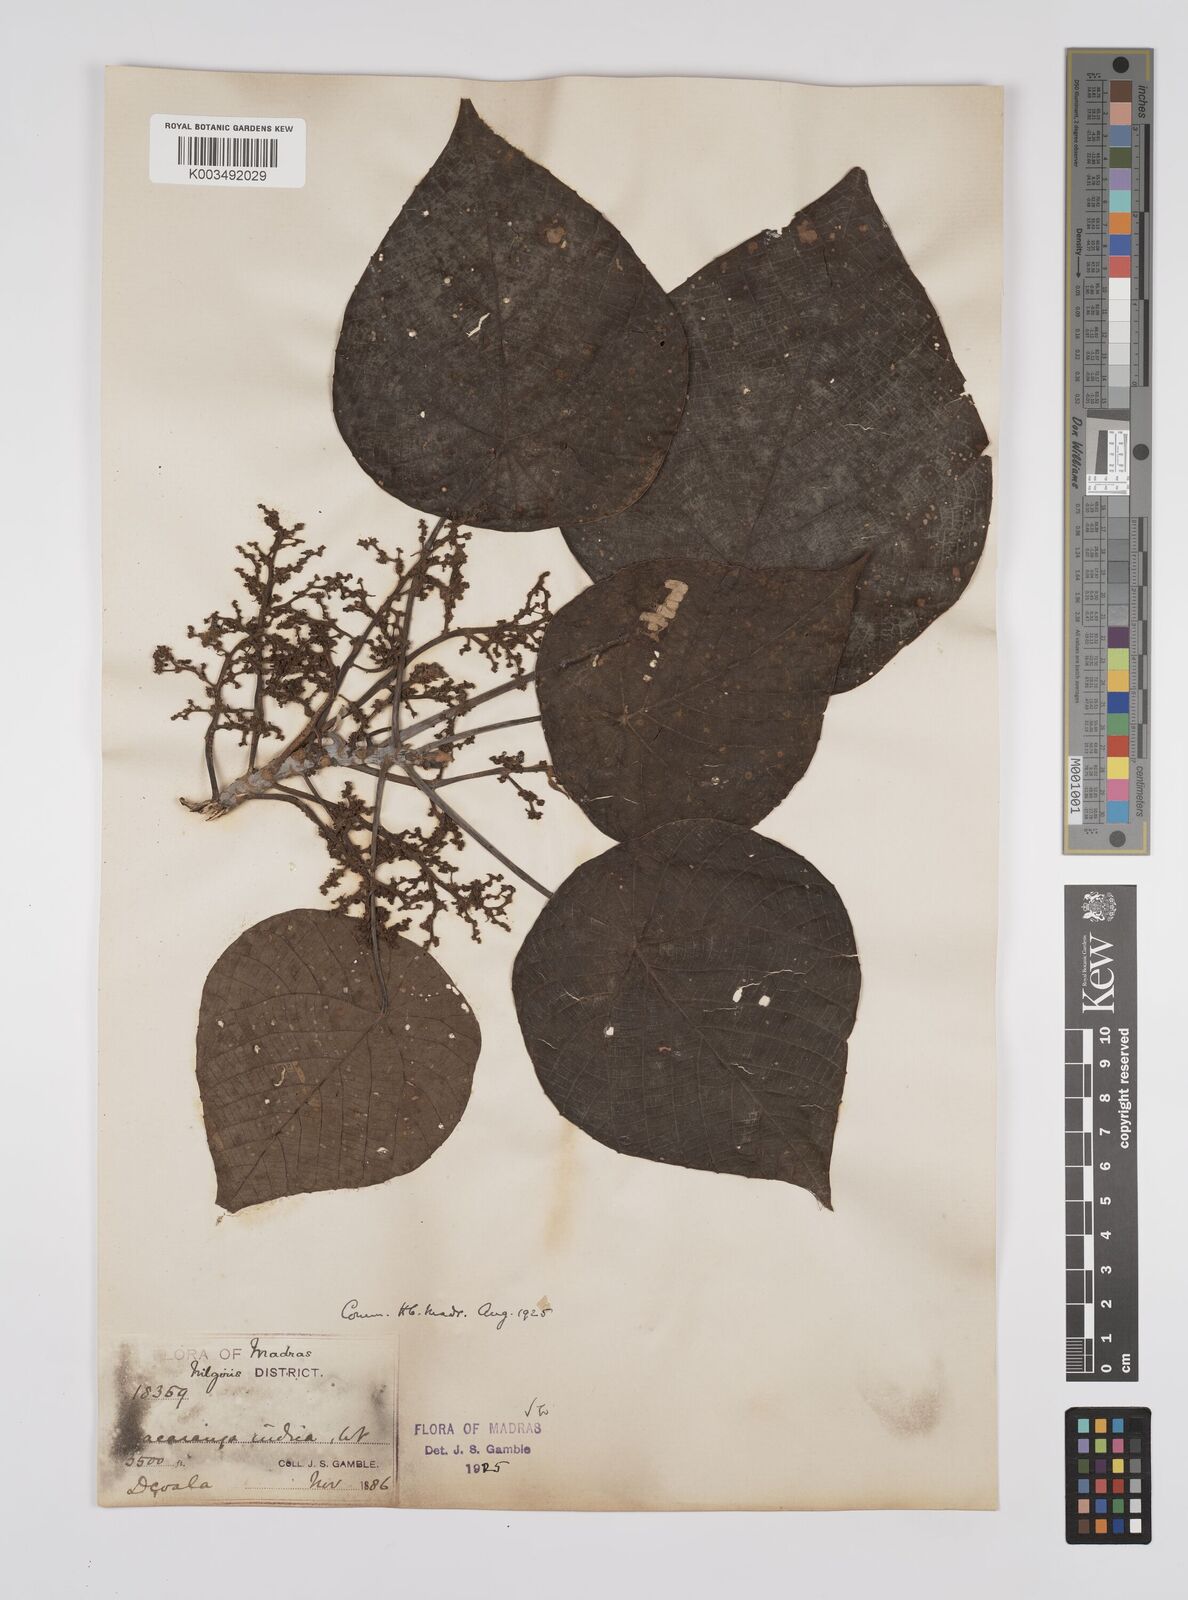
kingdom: Plantae
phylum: Tracheophyta
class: Magnoliopsida
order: Malpighiales
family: Euphorbiaceae
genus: Macaranga
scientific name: Macaranga indica
